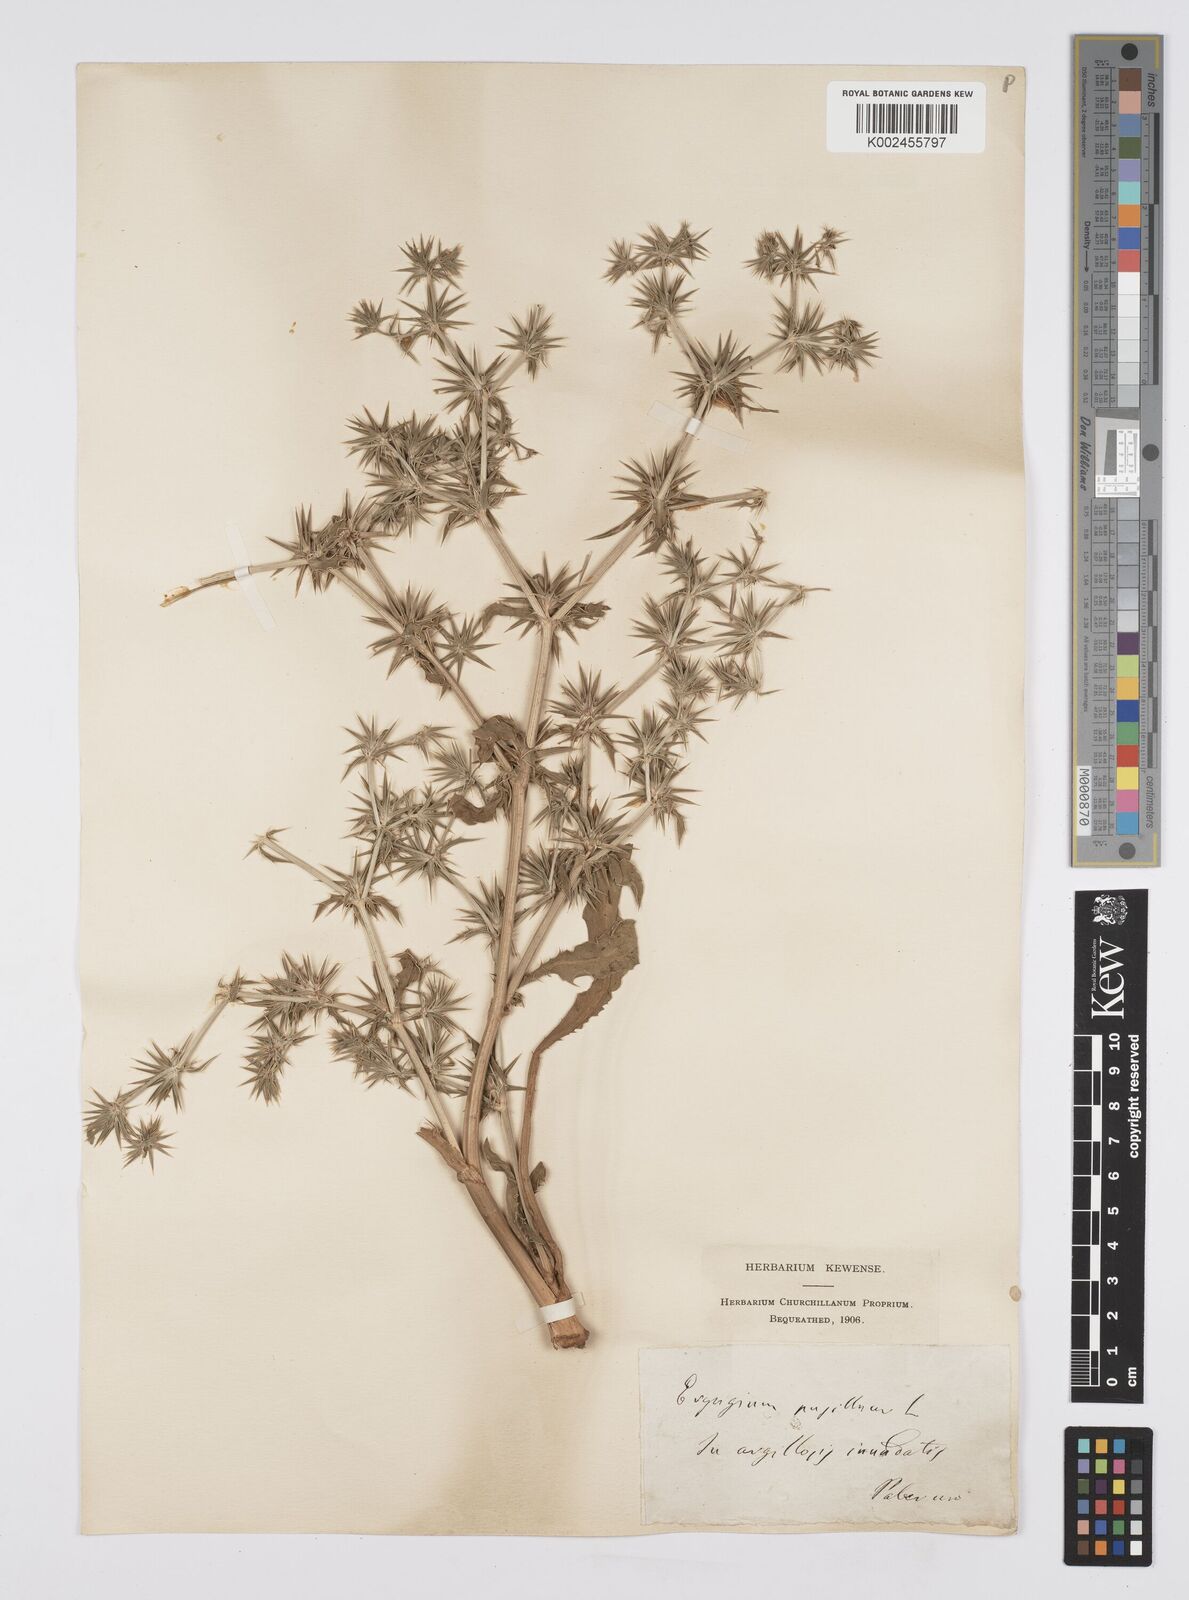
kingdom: Plantae
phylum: Tracheophyta
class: Magnoliopsida
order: Apiales
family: Apiaceae
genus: Eryngium
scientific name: Eryngium pusillum
